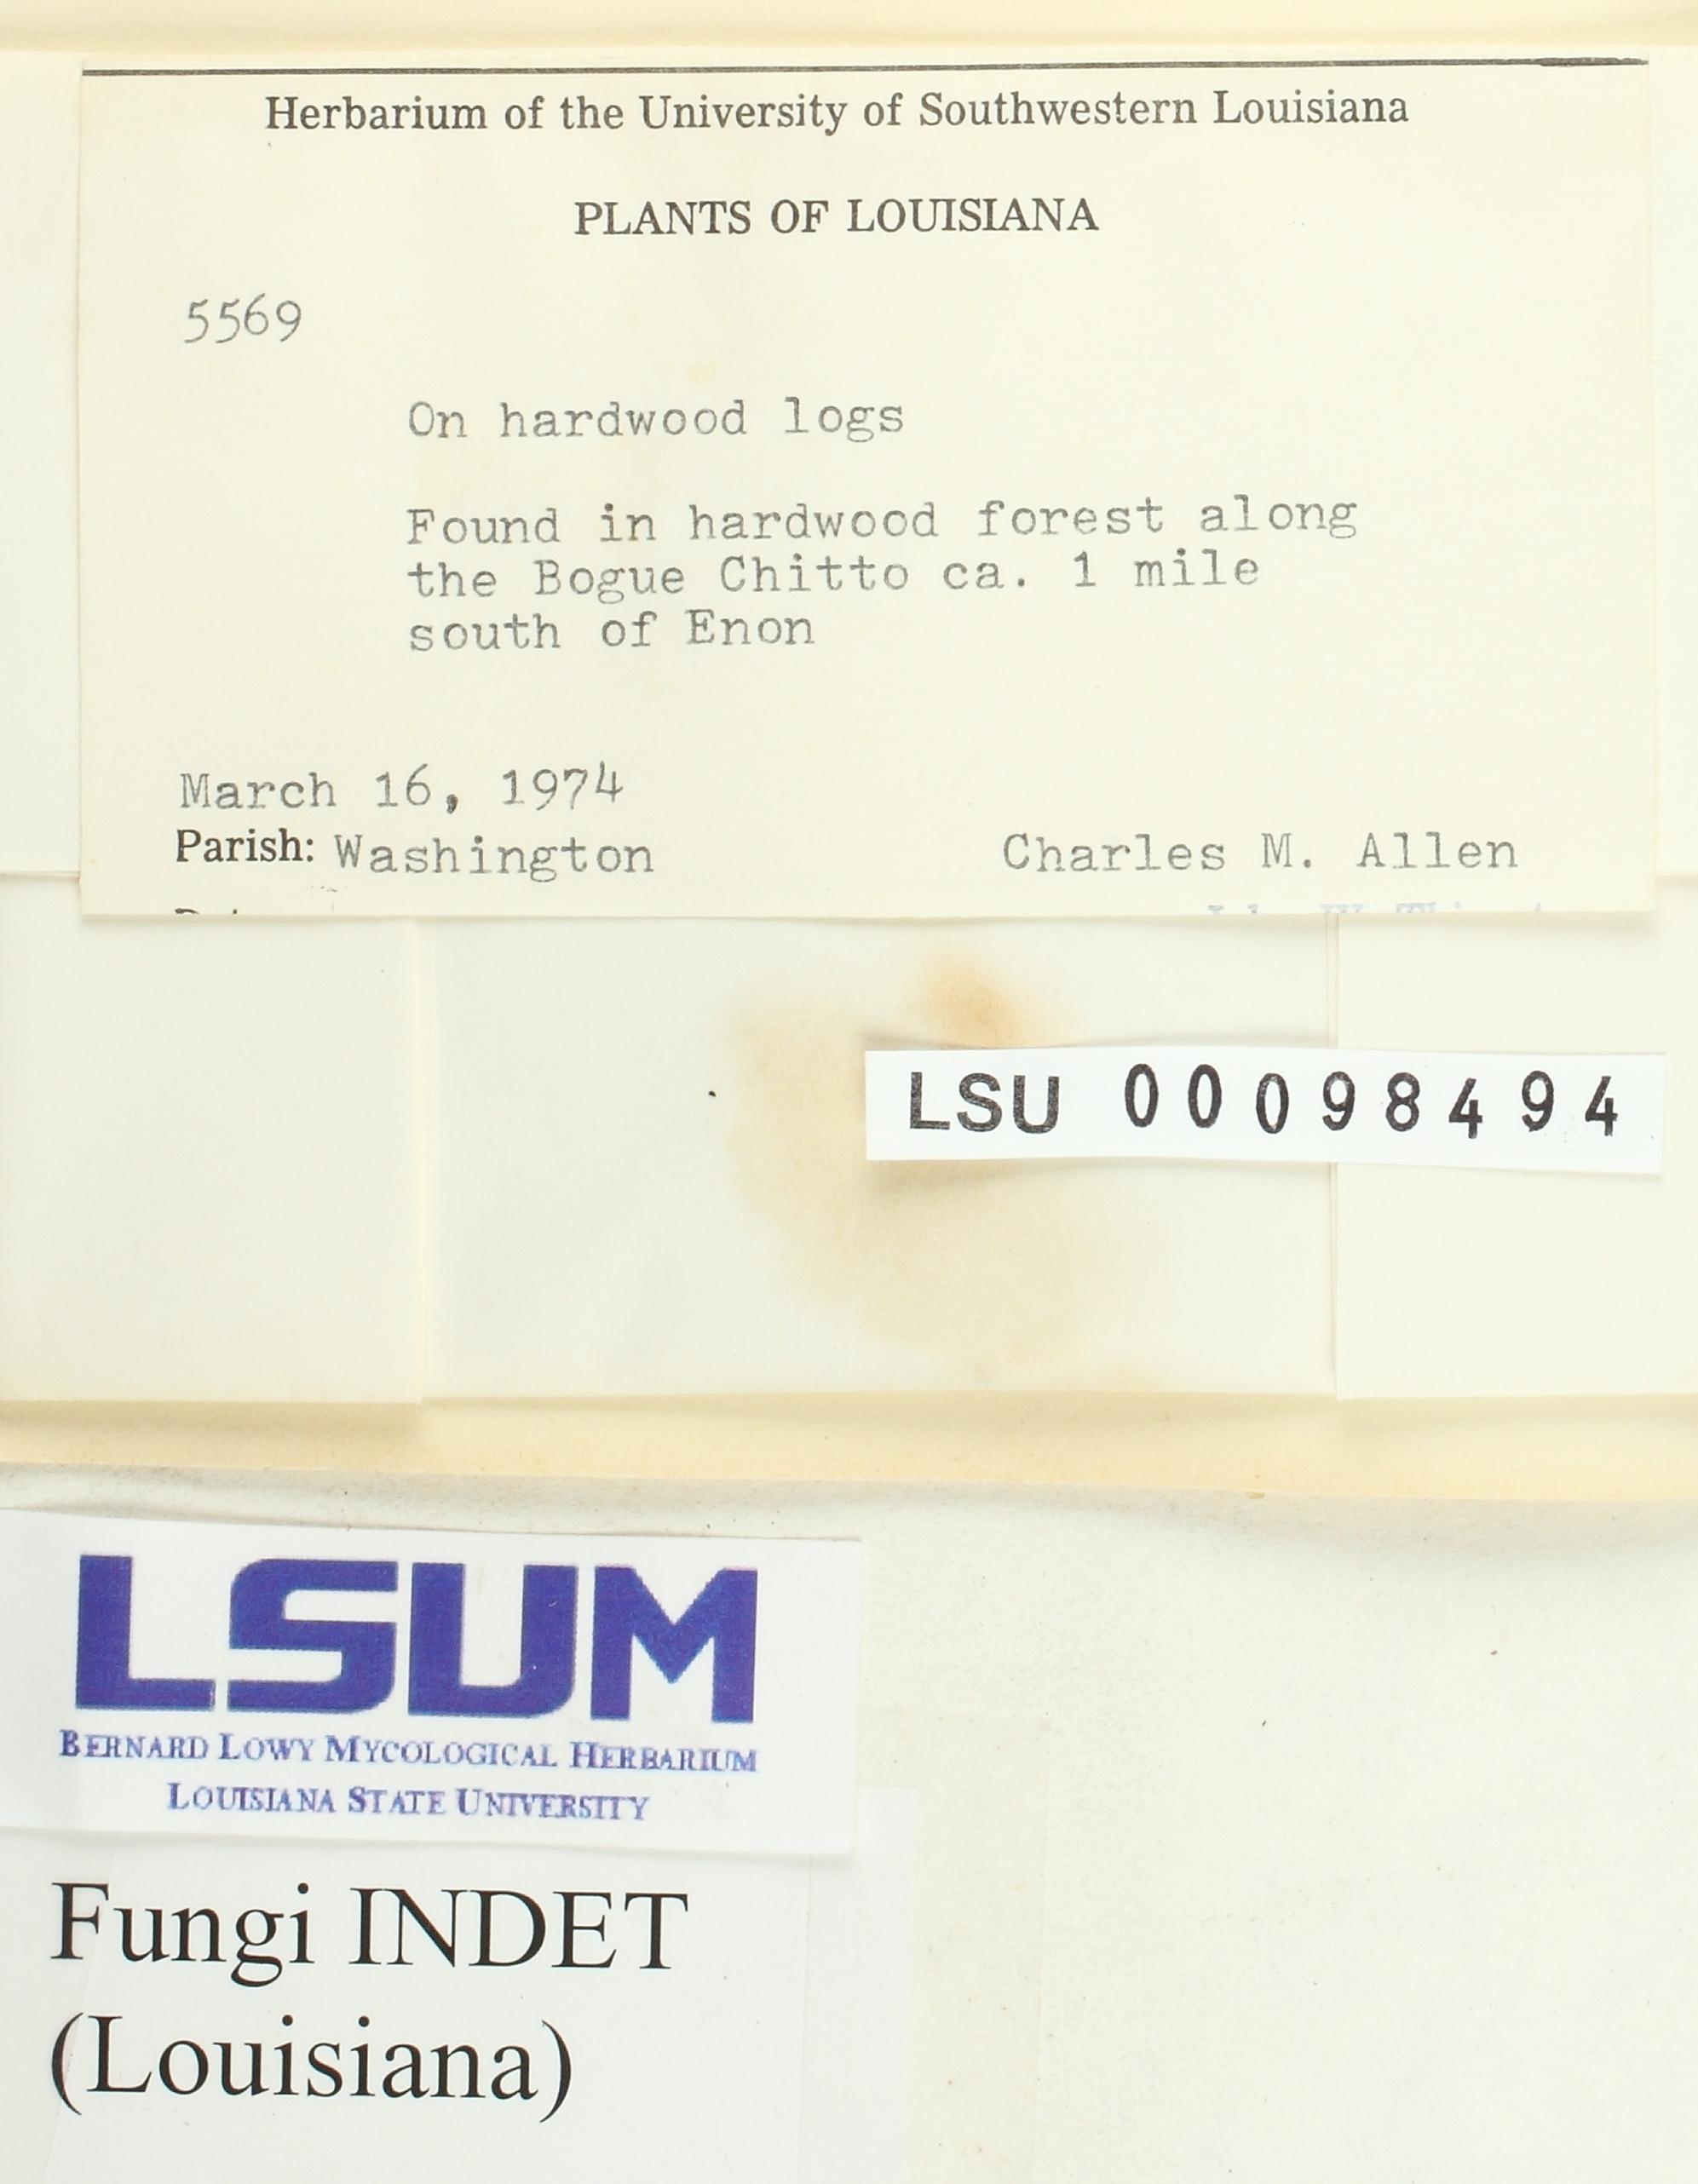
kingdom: Fungi
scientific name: Fungi
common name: Fungi
